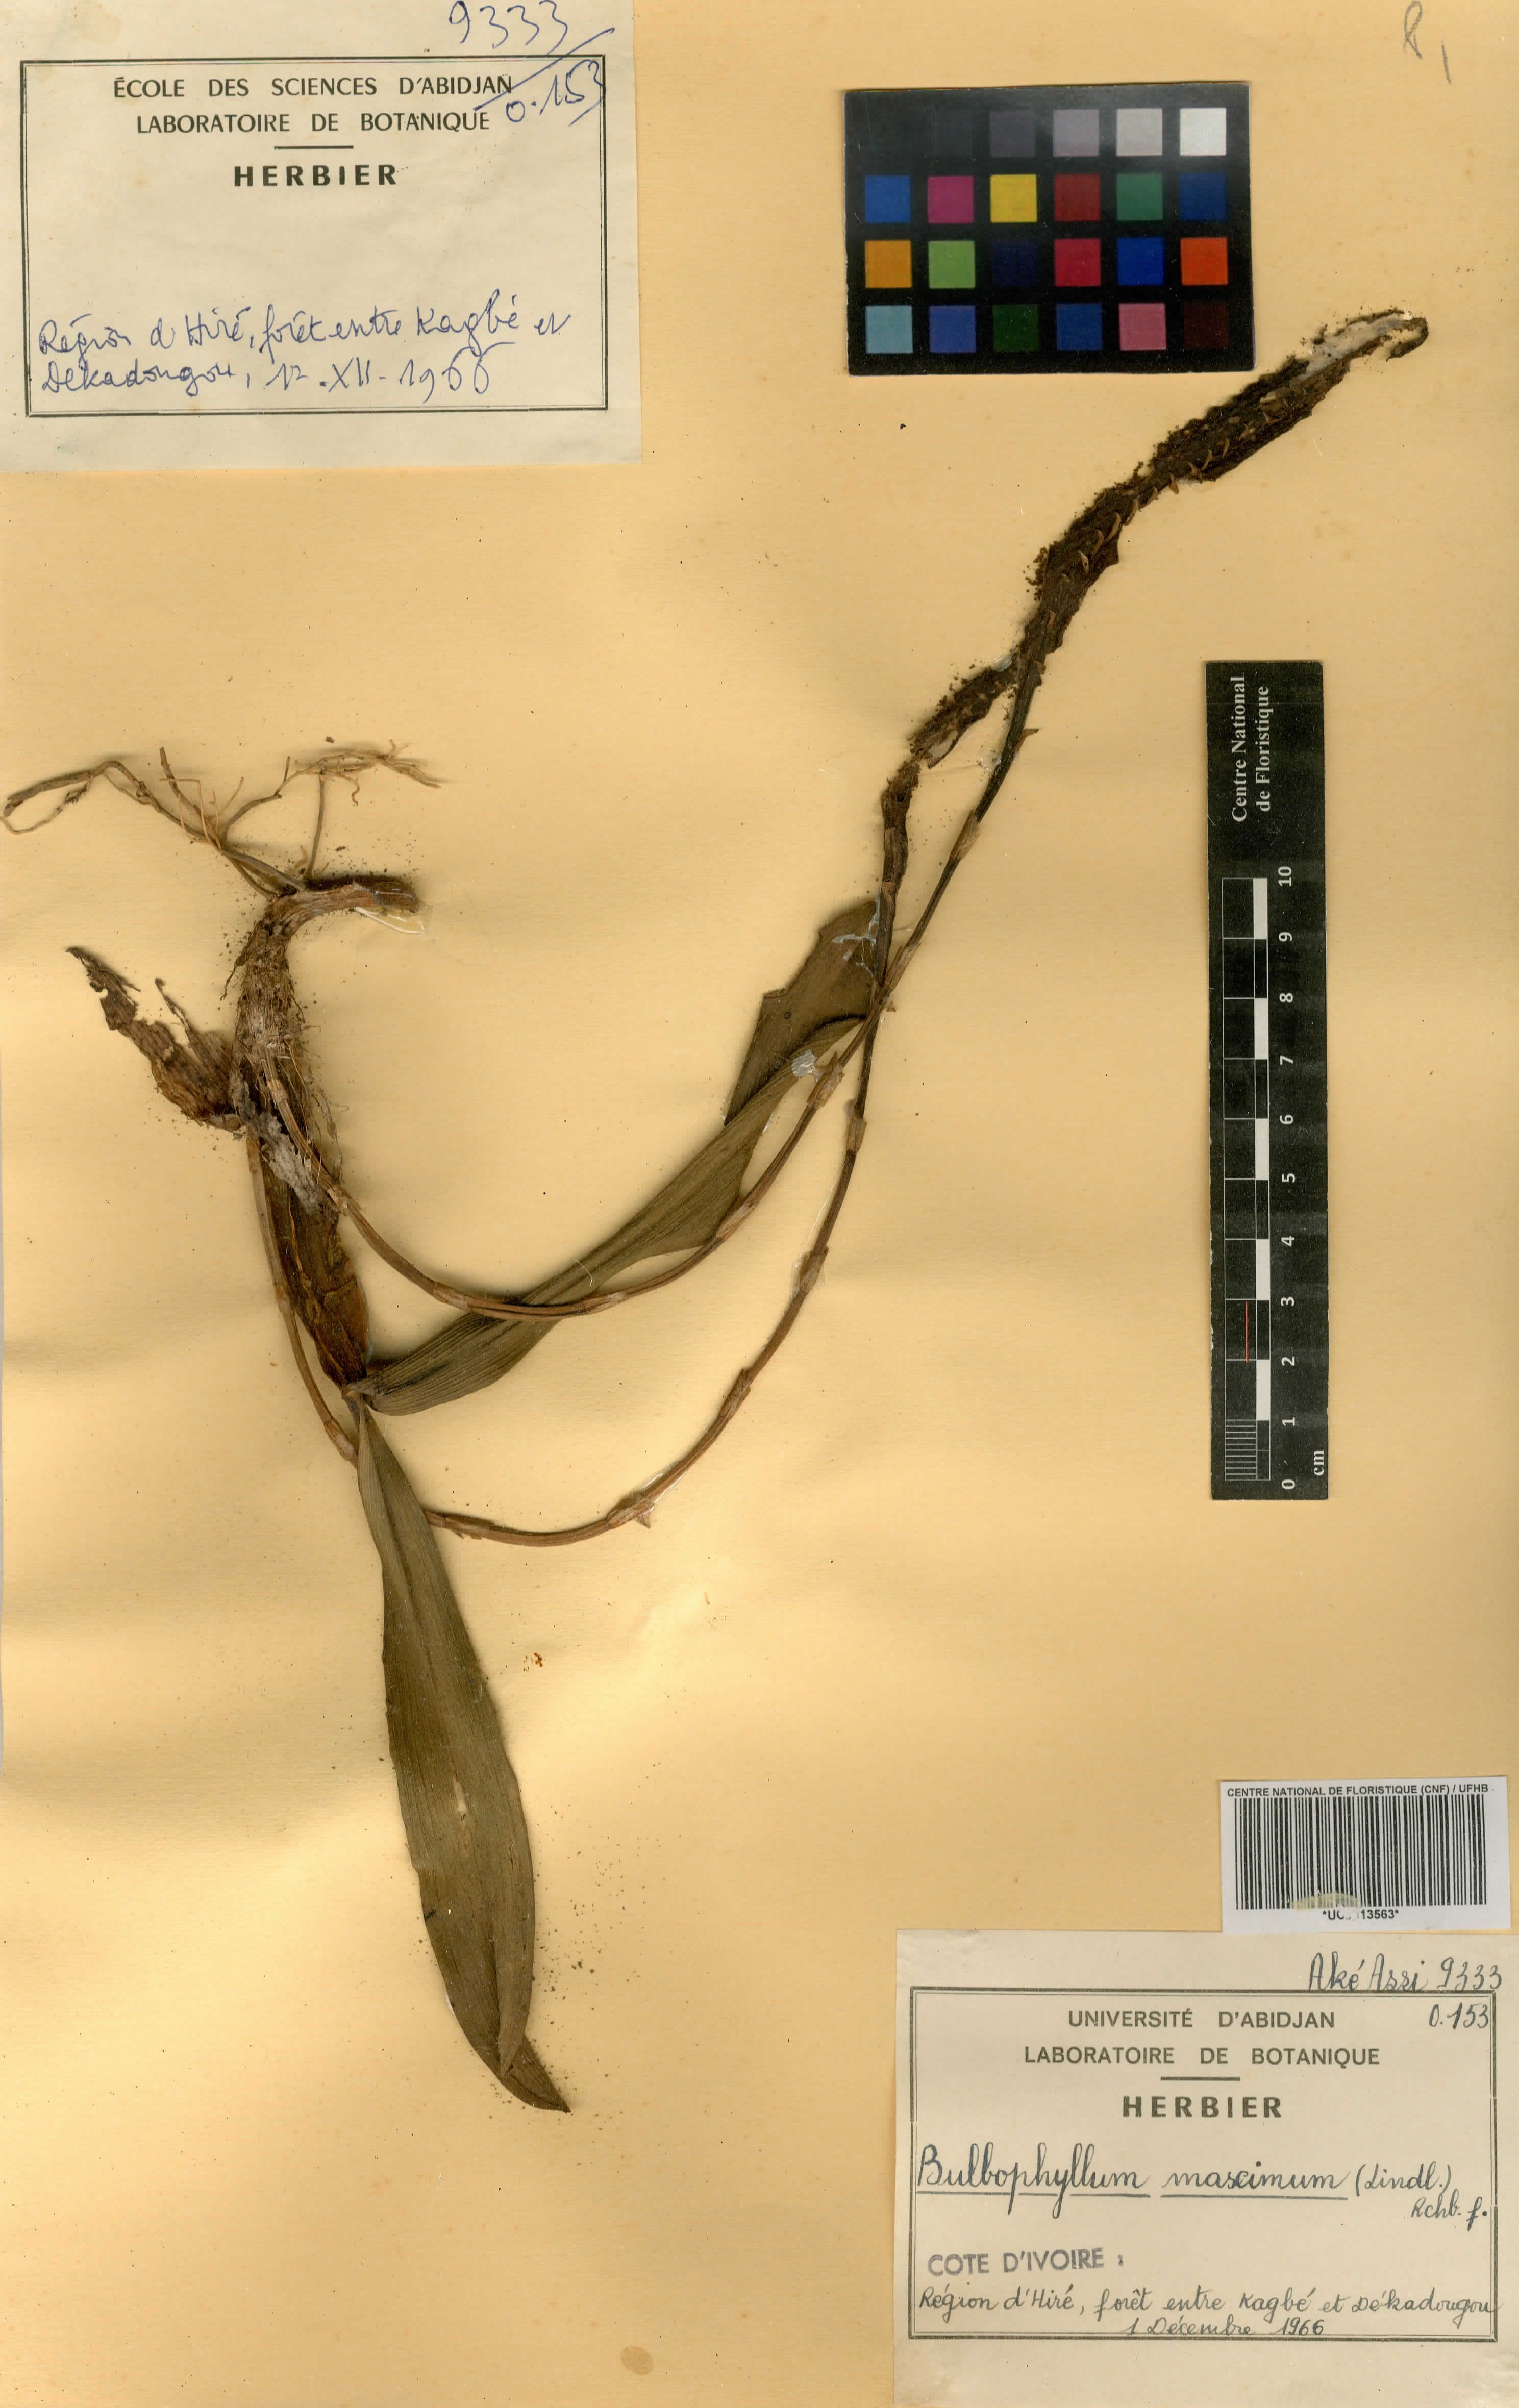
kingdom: Plantae
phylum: Tracheophyta
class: Liliopsida
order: Asparagales
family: Orchidaceae
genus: Bulbophyllum
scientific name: Bulbophyllum maximum
